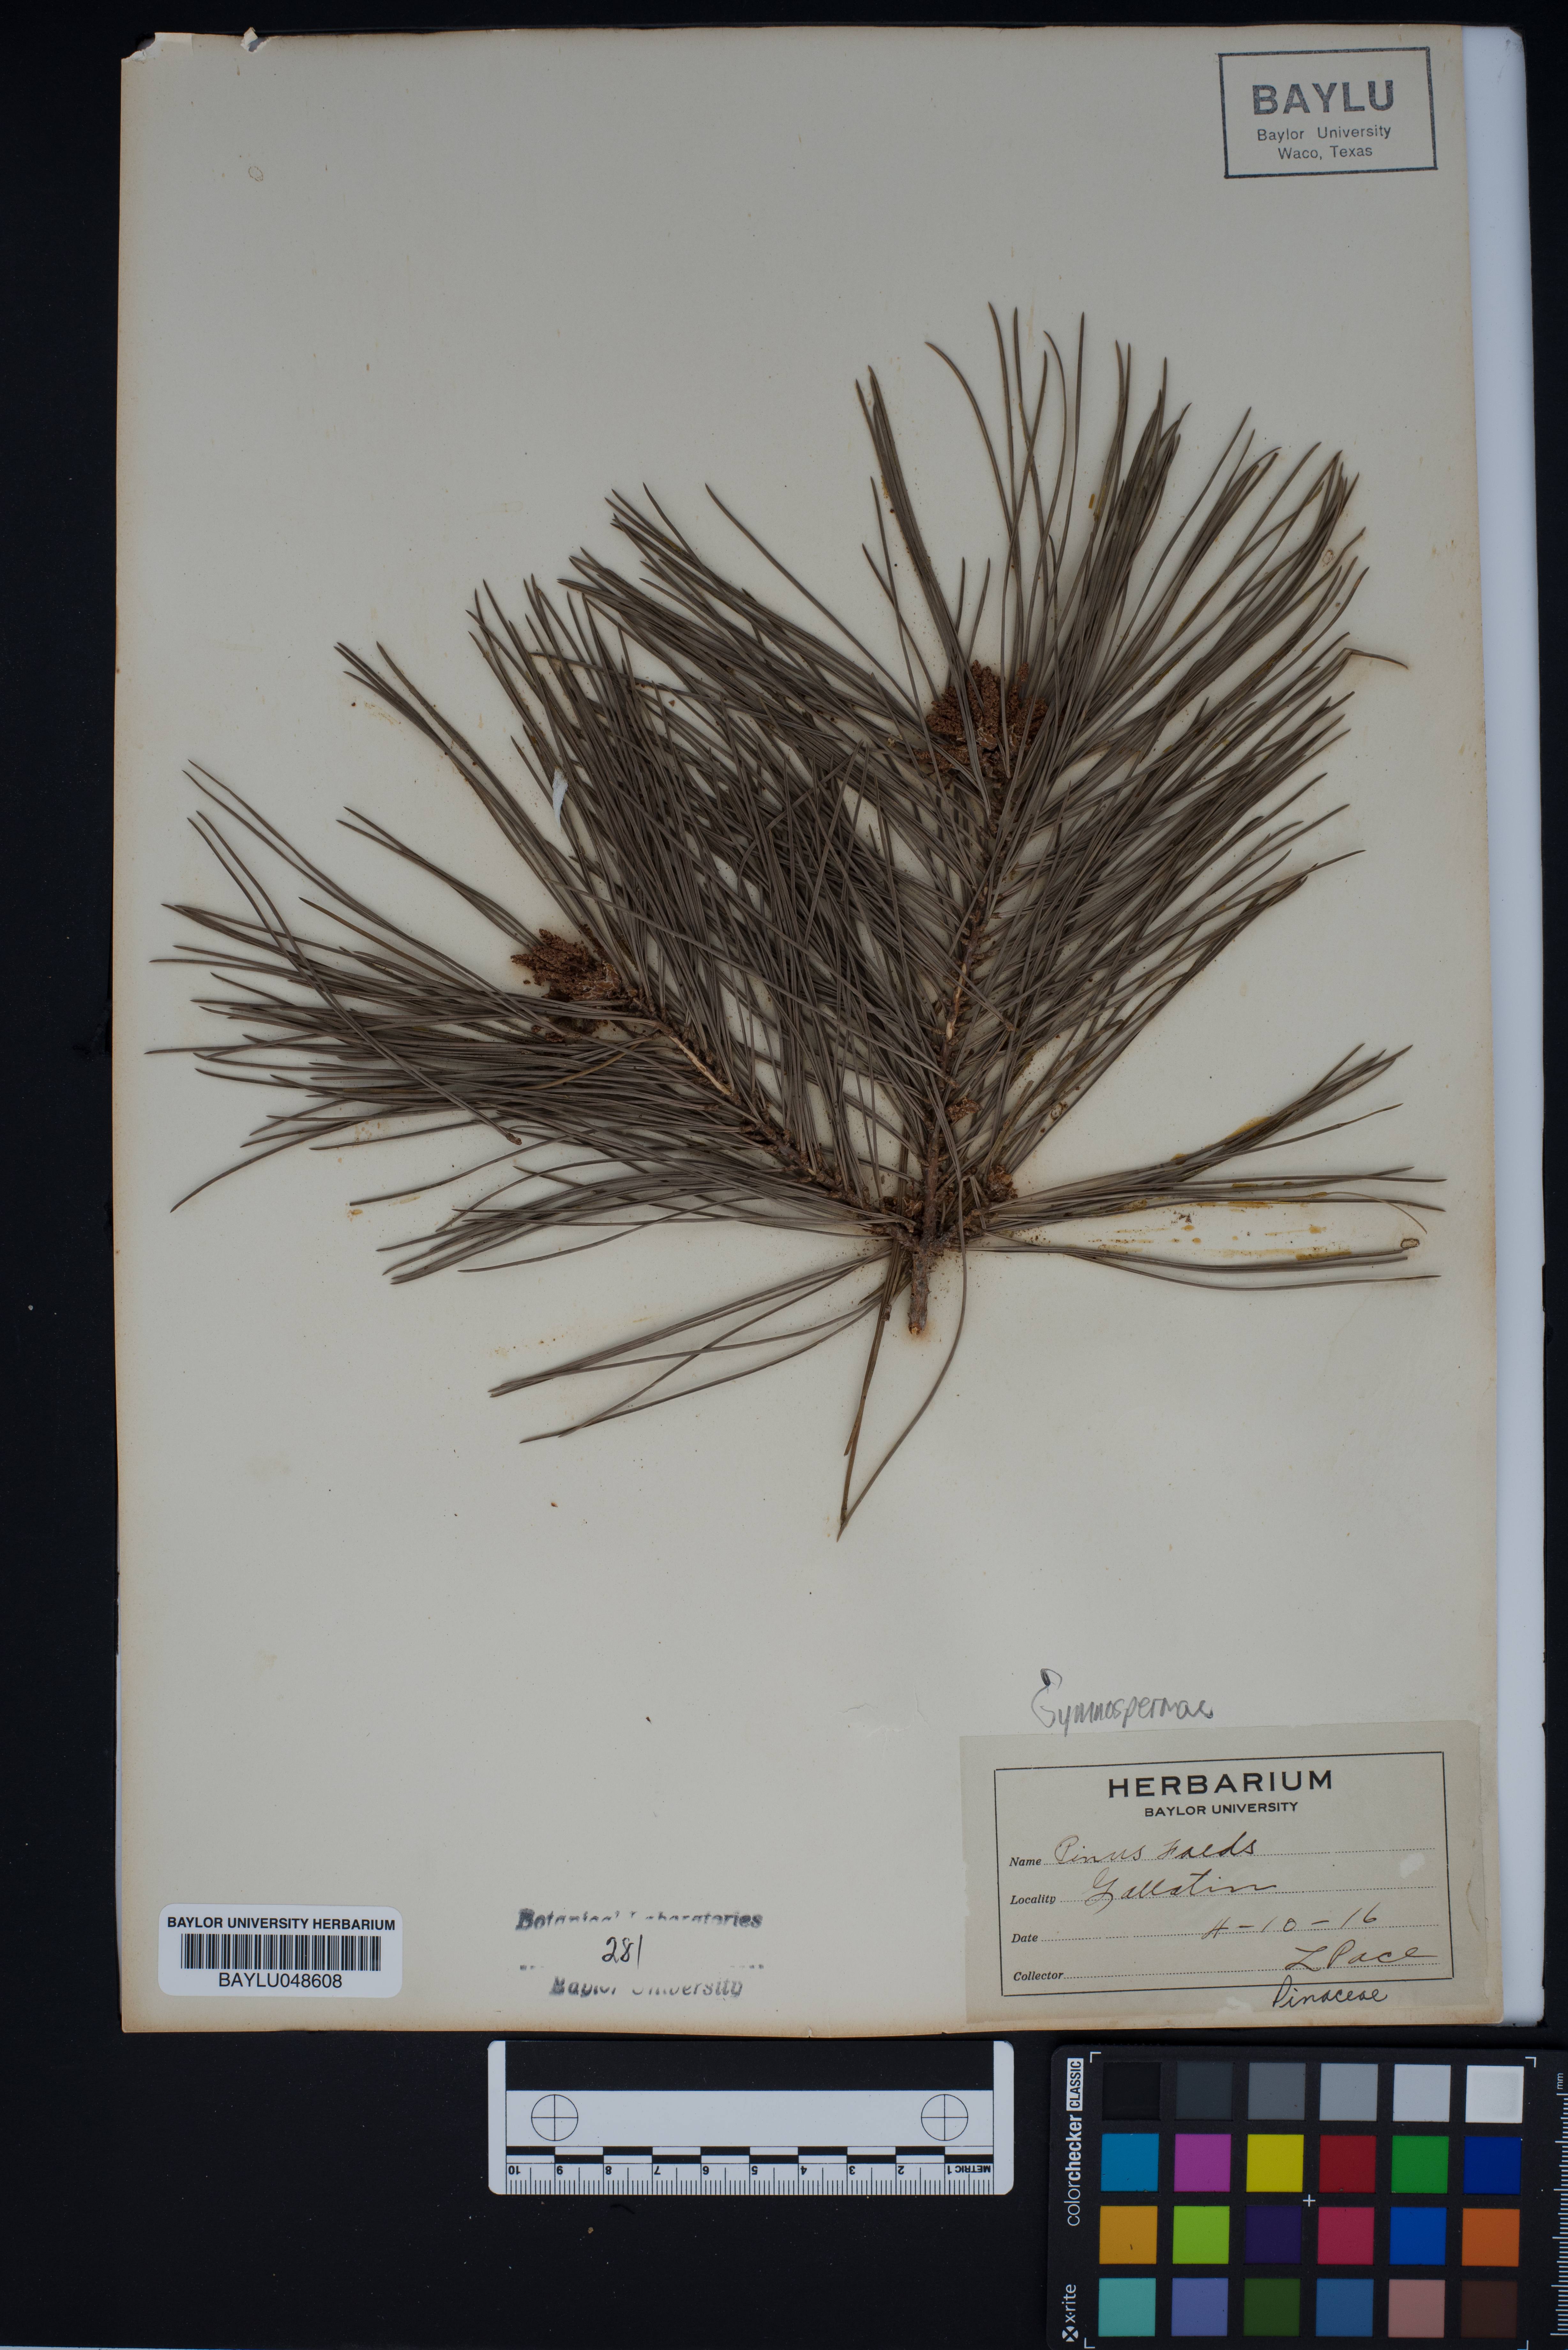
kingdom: Plantae
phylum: Tracheophyta
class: Pinopsida
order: Pinales
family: Pinaceae
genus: Pinus
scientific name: Pinus taeda
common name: Loblolly pine
